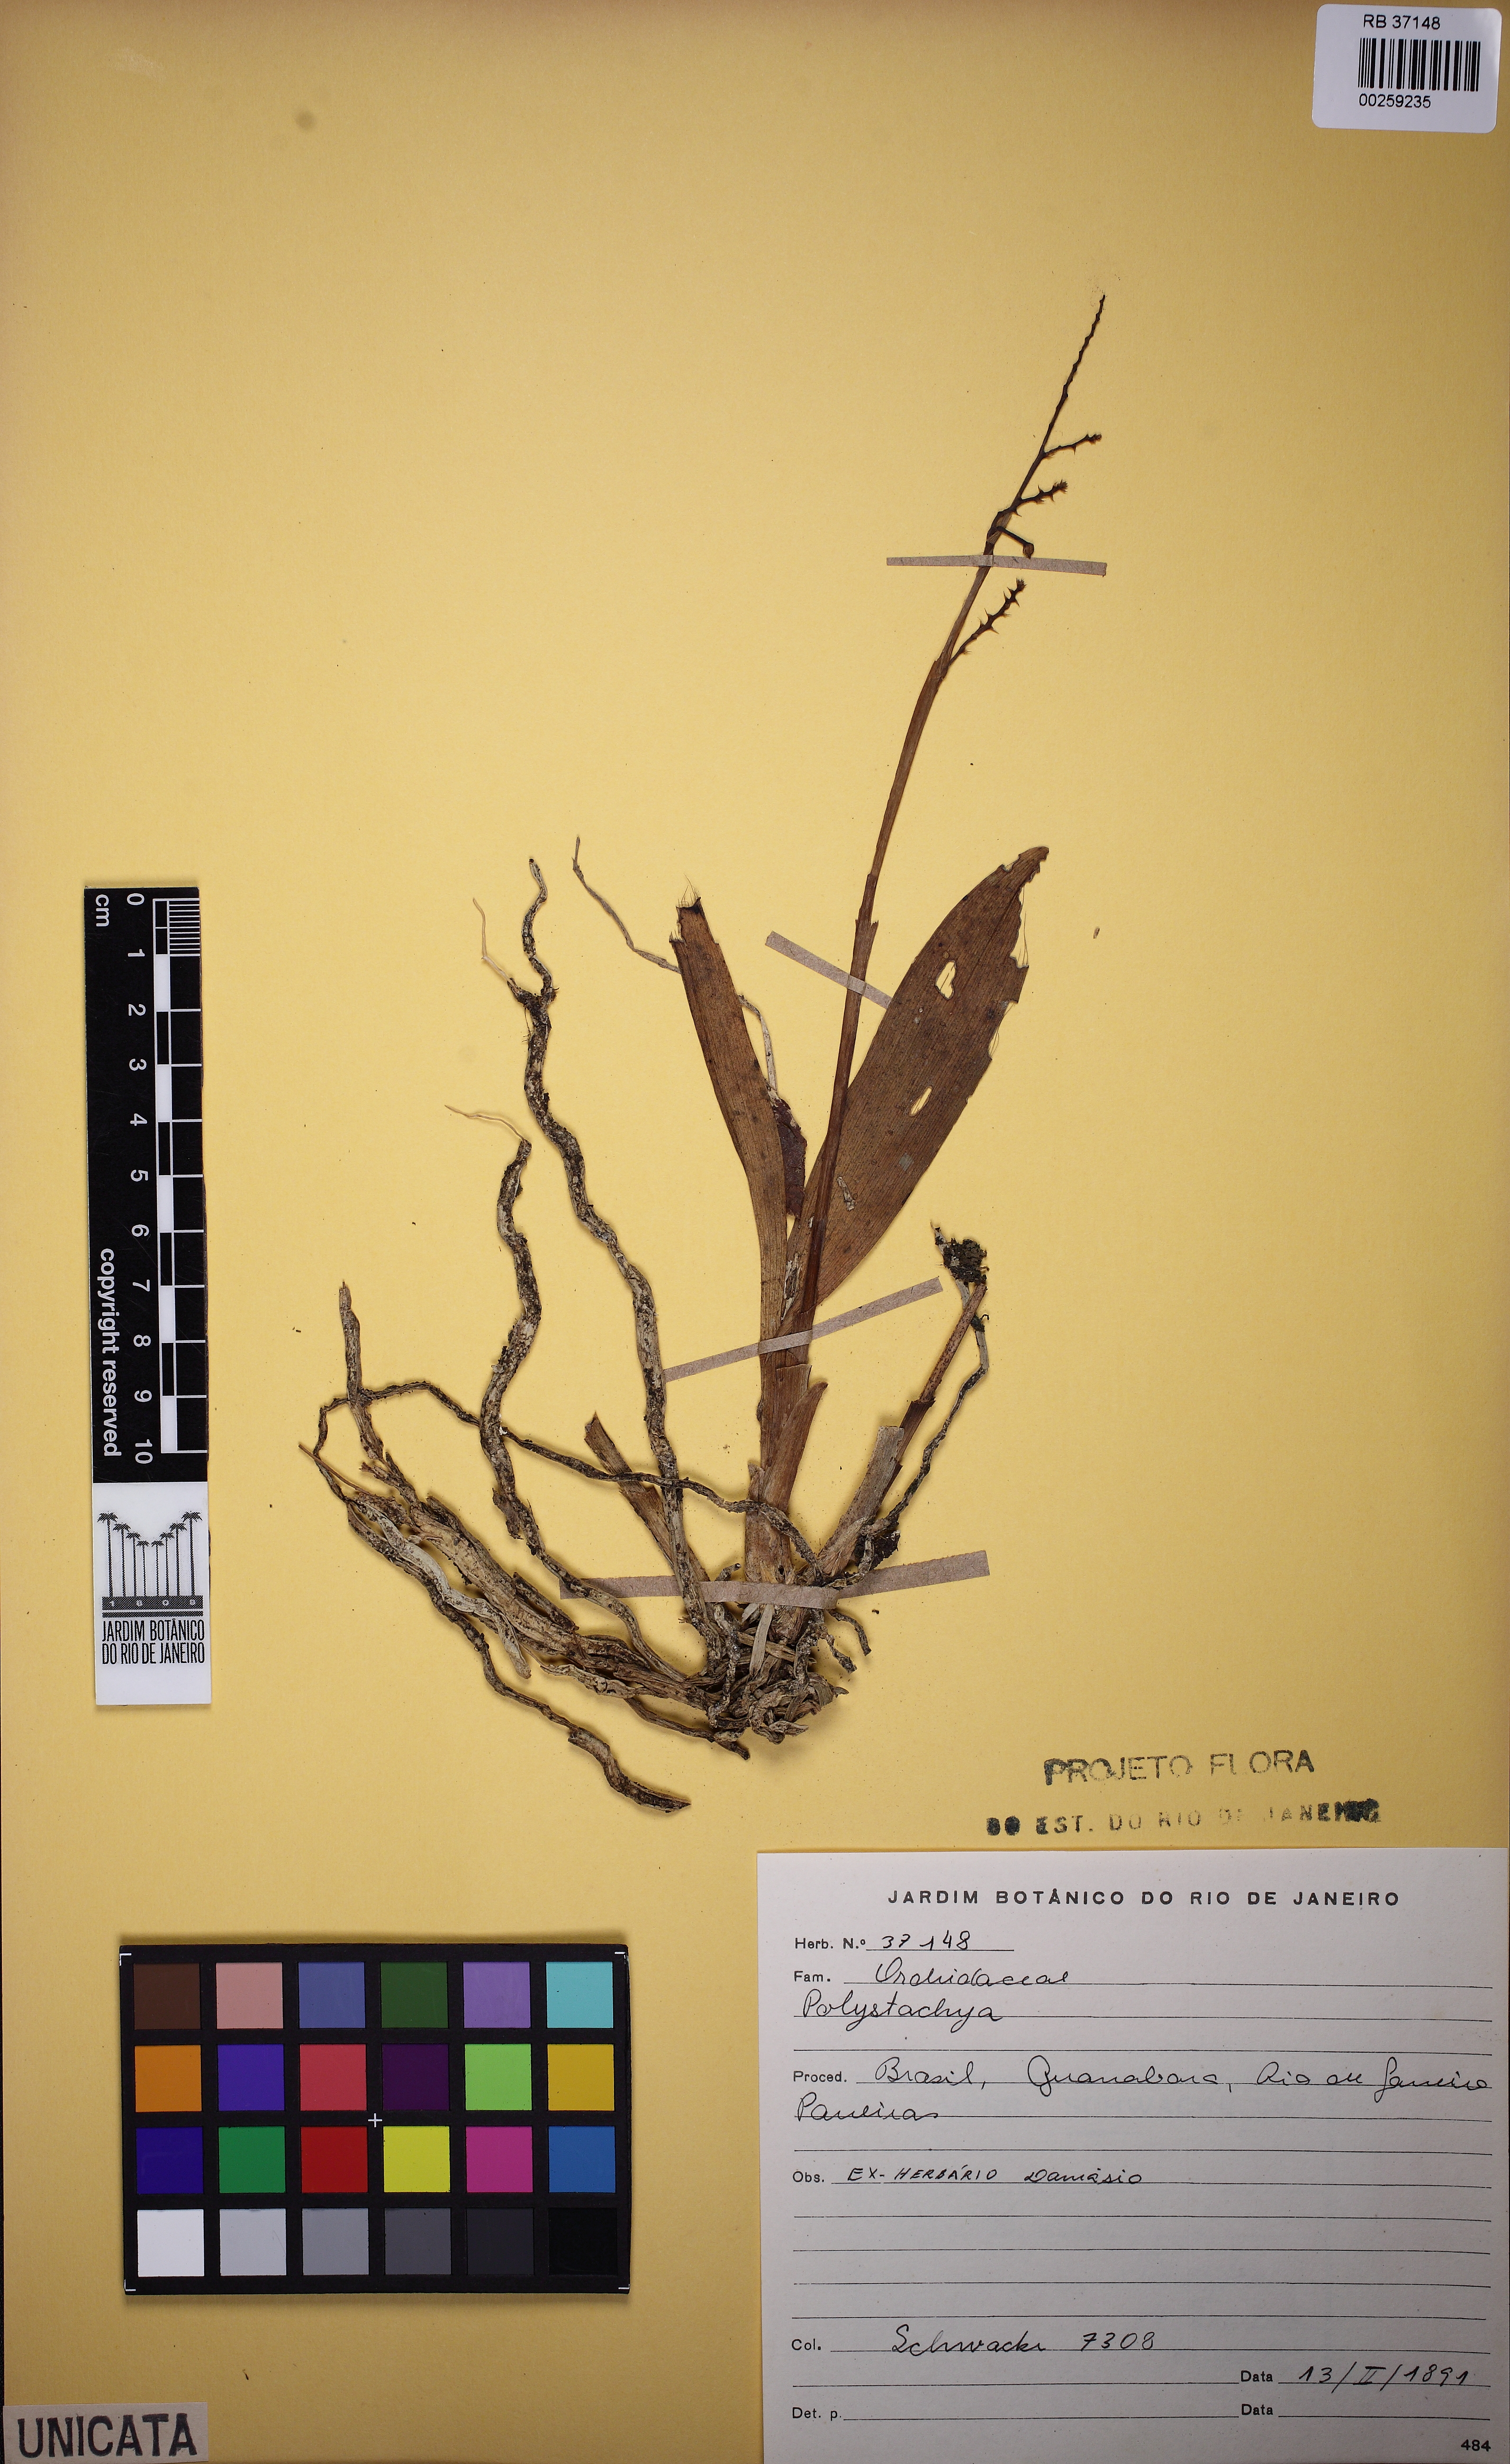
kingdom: Plantae
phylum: Tracheophyta
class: Liliopsida
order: Asparagales
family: Orchidaceae
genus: Polystachya
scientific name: Polystachya
